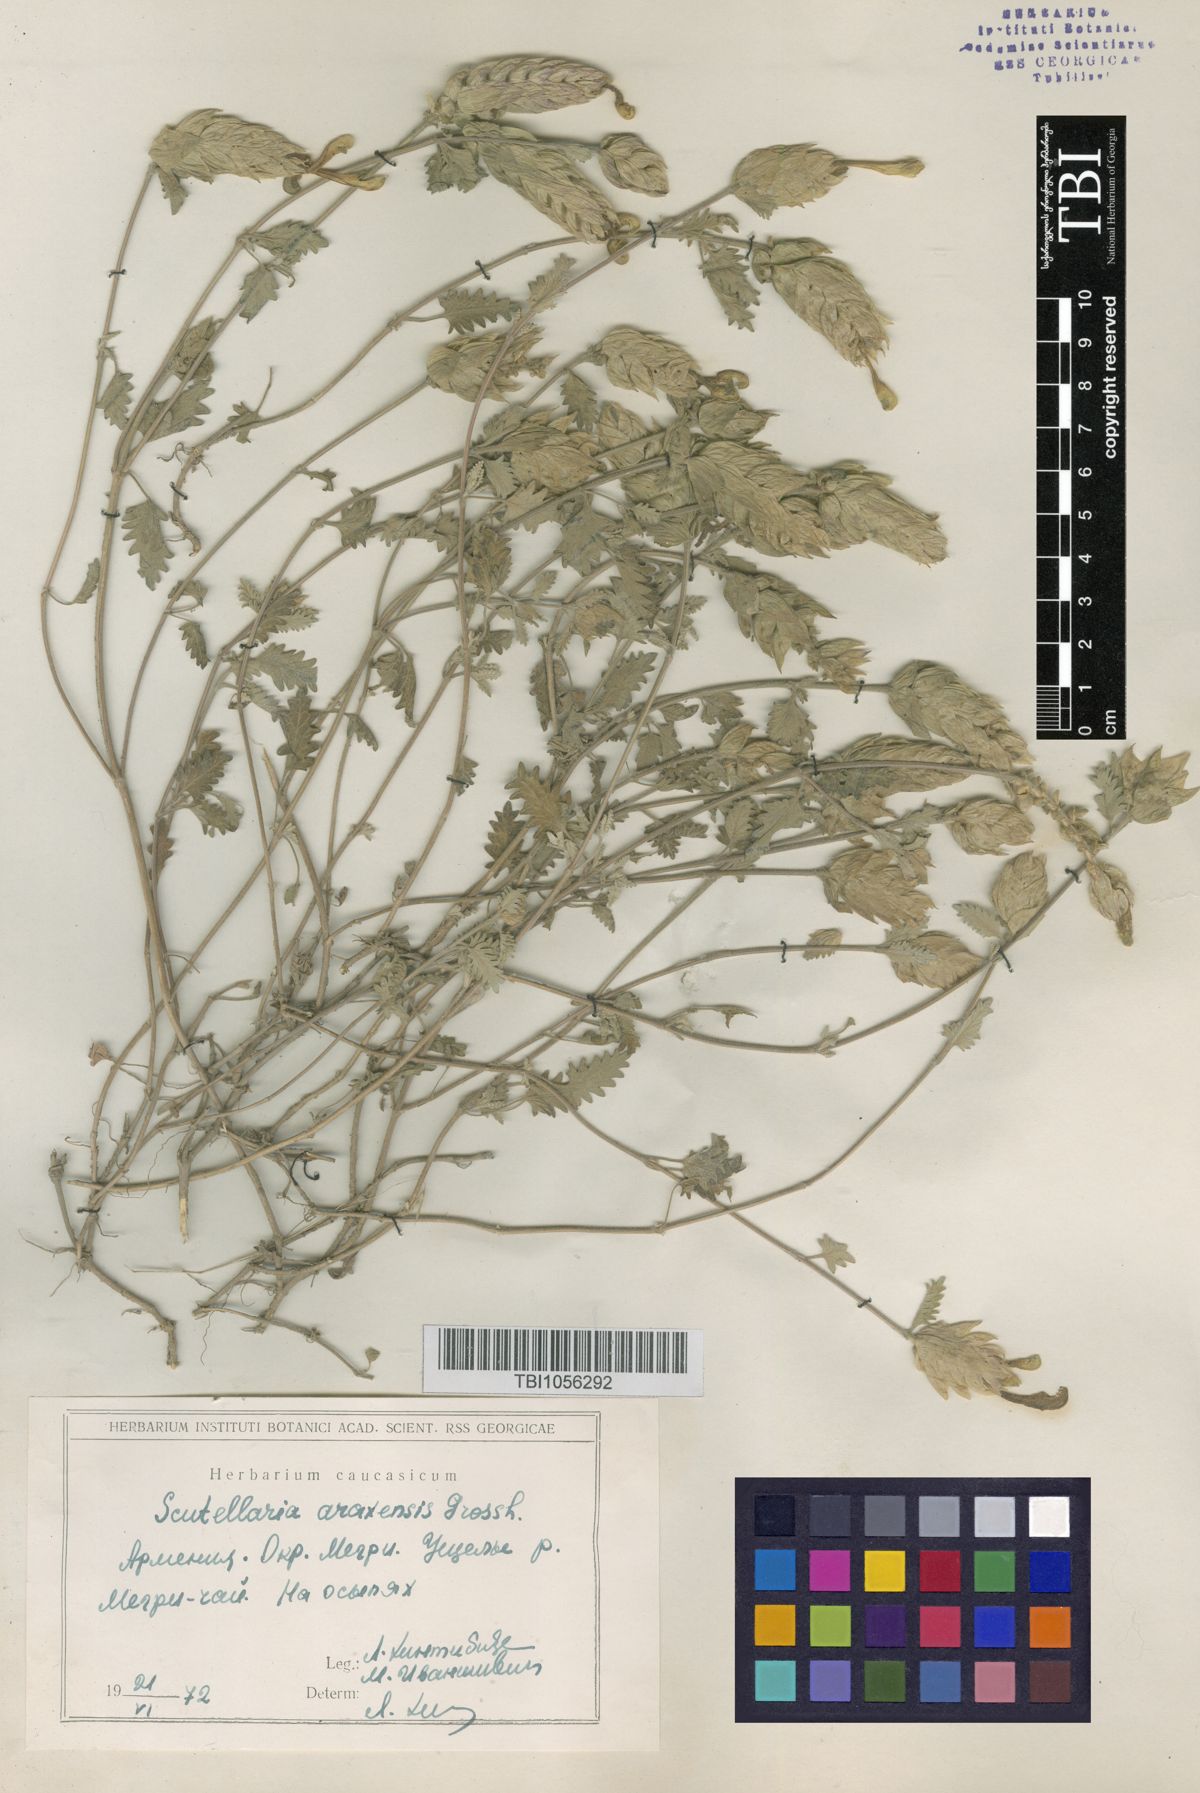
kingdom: Plantae
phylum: Tracheophyta
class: Magnoliopsida
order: Lamiales
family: Lamiaceae
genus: Scutellaria
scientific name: Scutellaria araxensis
